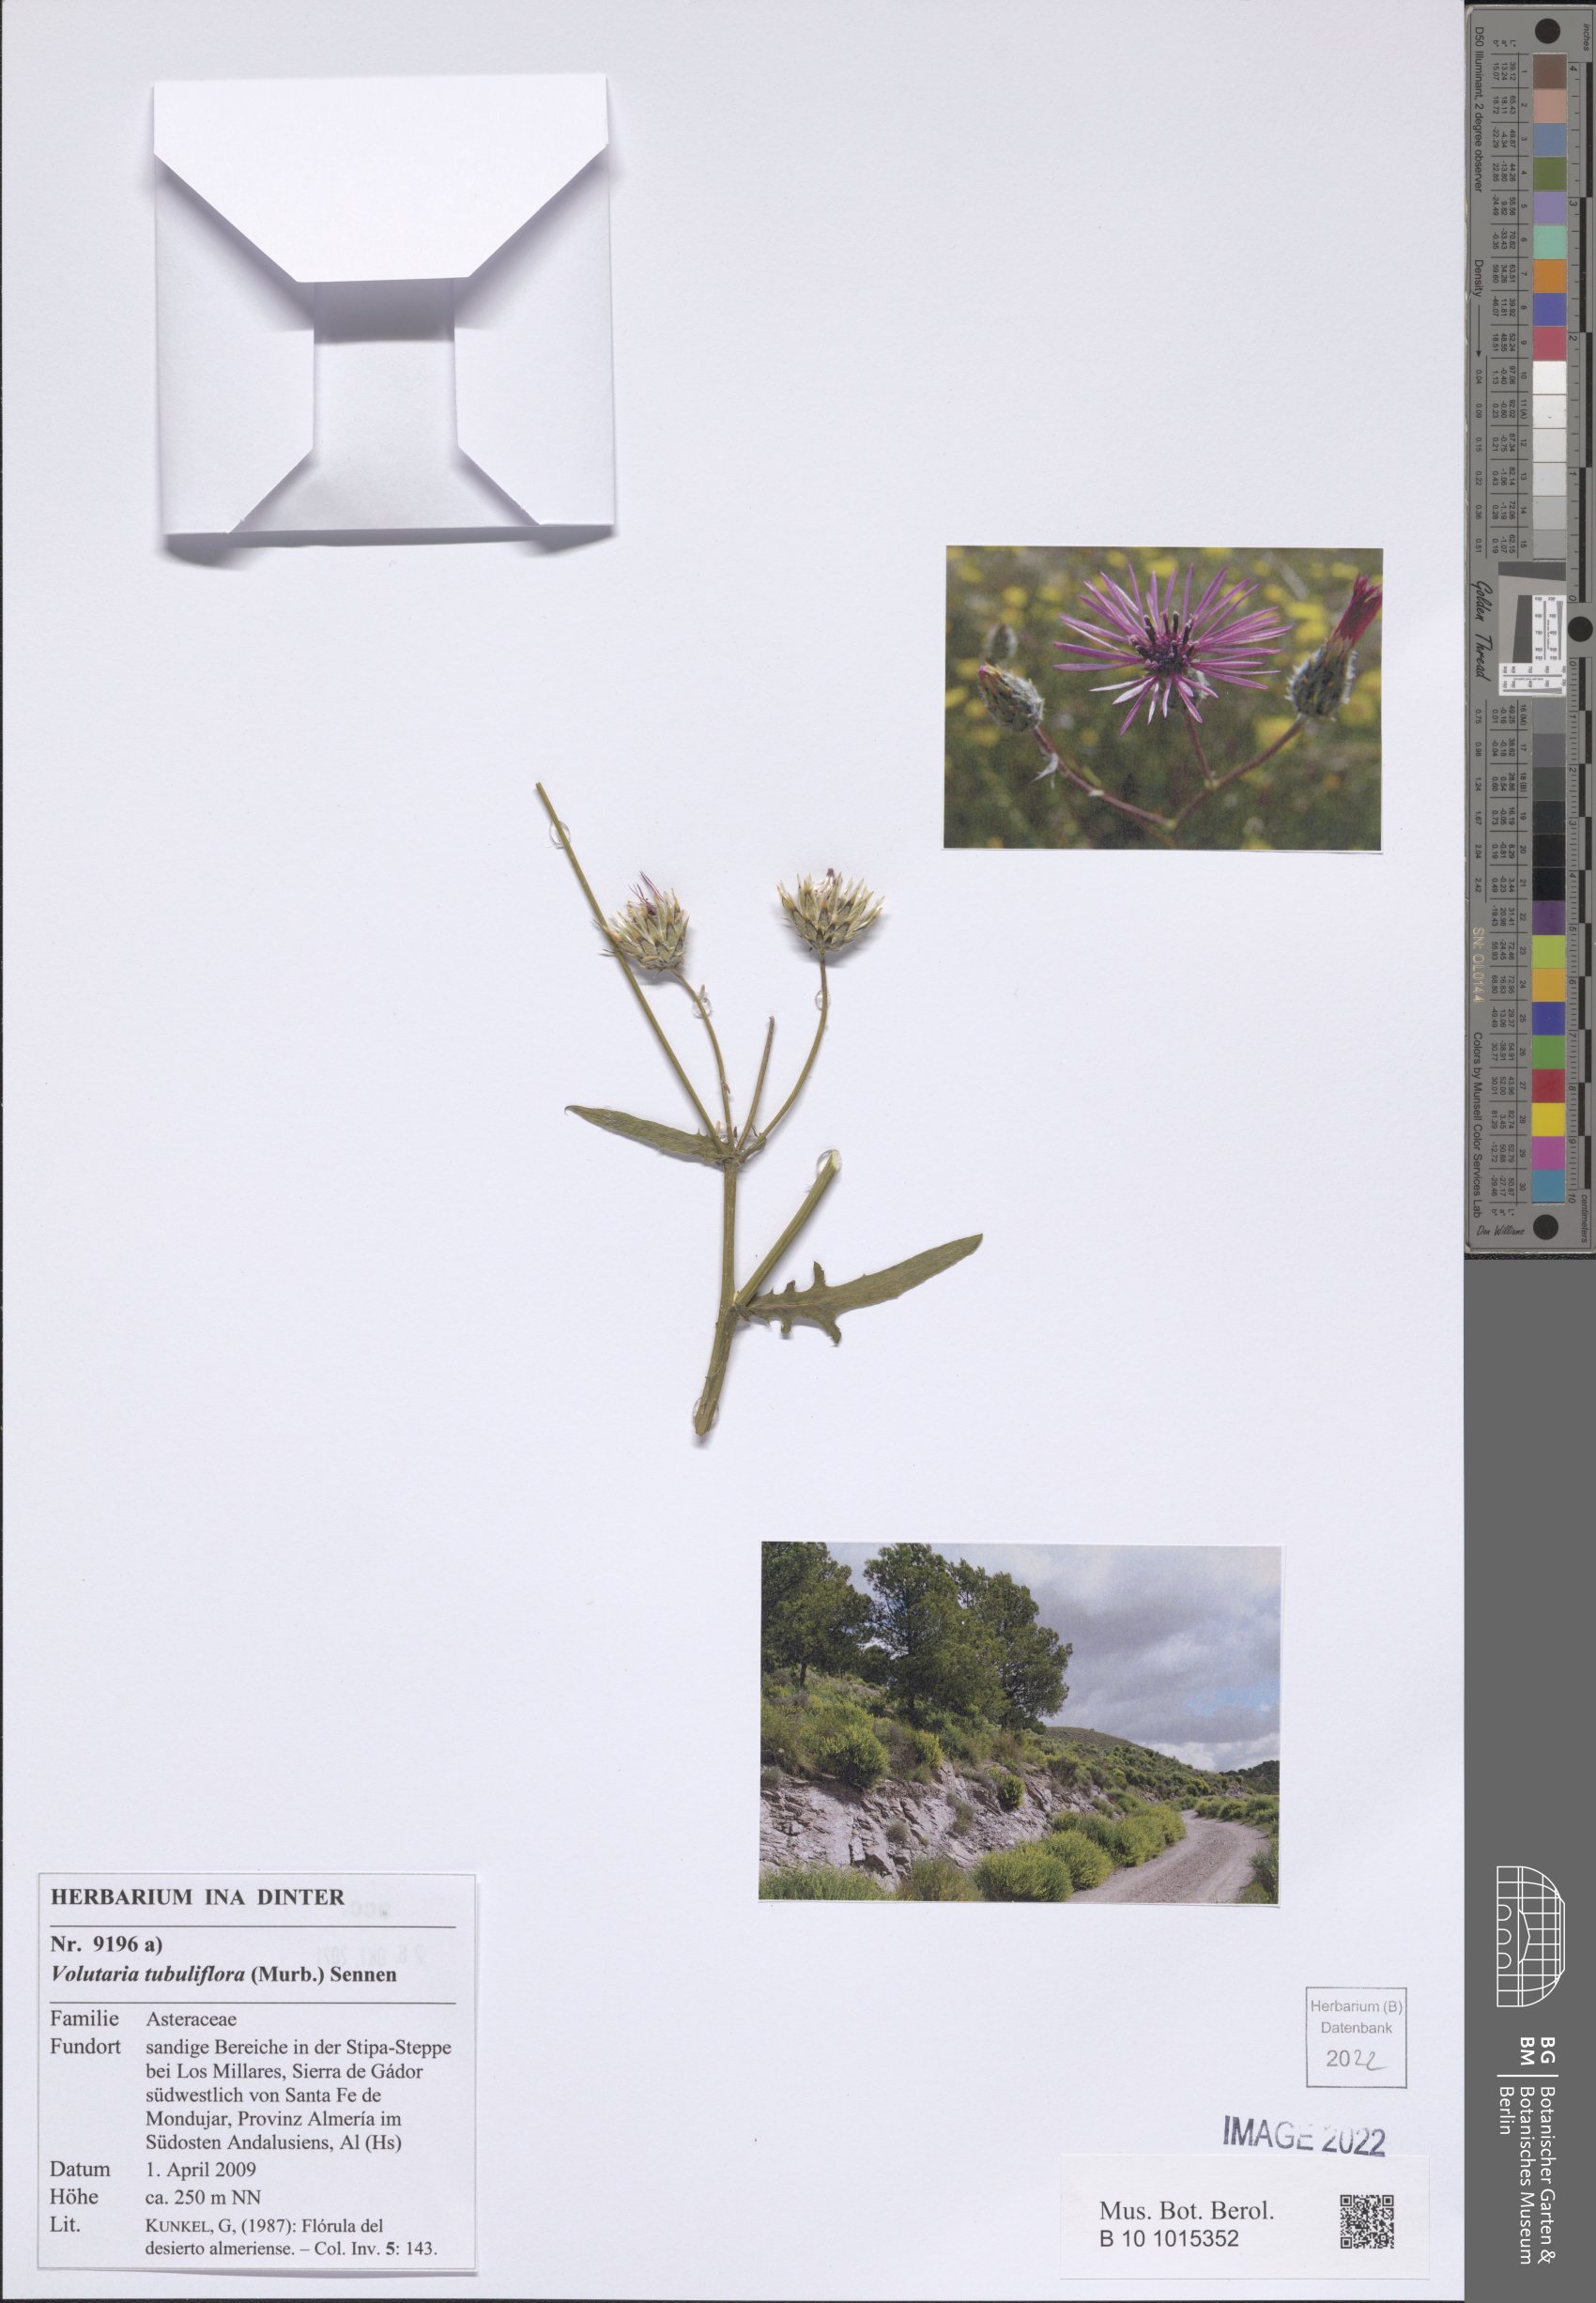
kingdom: Plantae
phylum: Tracheophyta
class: Magnoliopsida
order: Asterales
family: Asteraceae
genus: Volutaria
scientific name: Volutaria tubuliflora
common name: Desert knapweed
